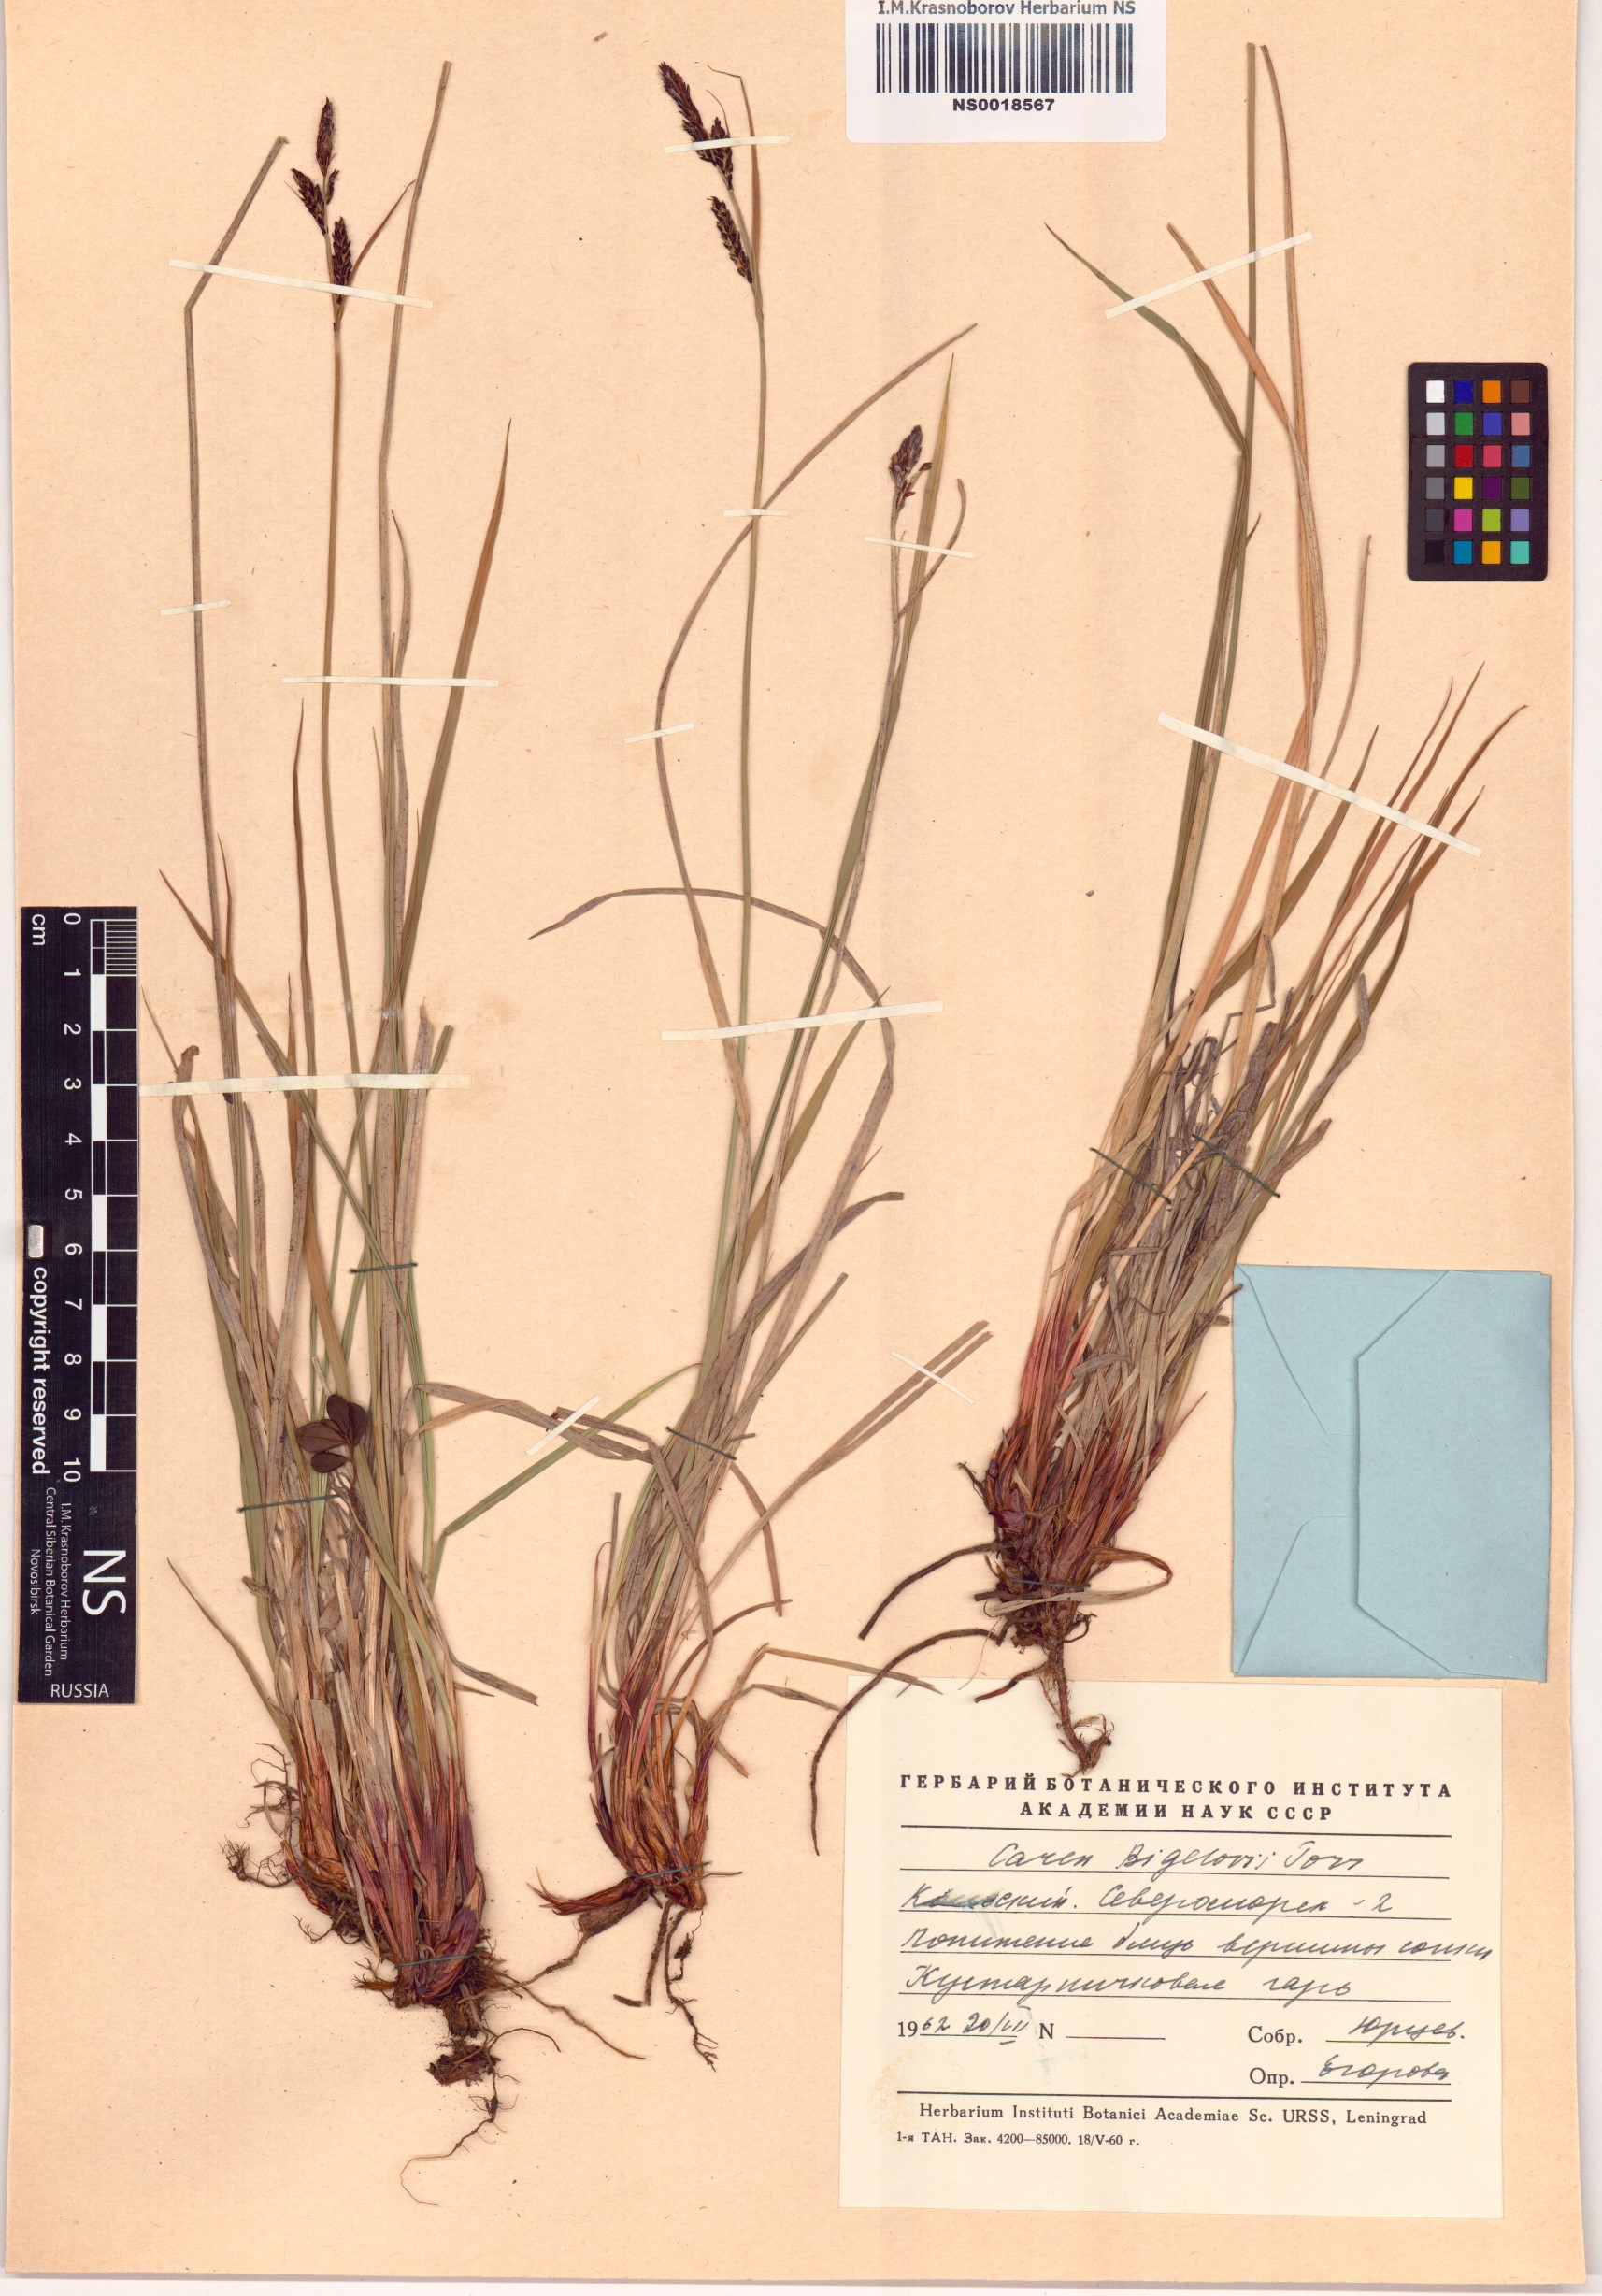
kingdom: Plantae
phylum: Tracheophyta
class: Liliopsida
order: Poales
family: Cyperaceae
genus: Carex
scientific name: Carex bigelowii
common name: Stiff sedge
